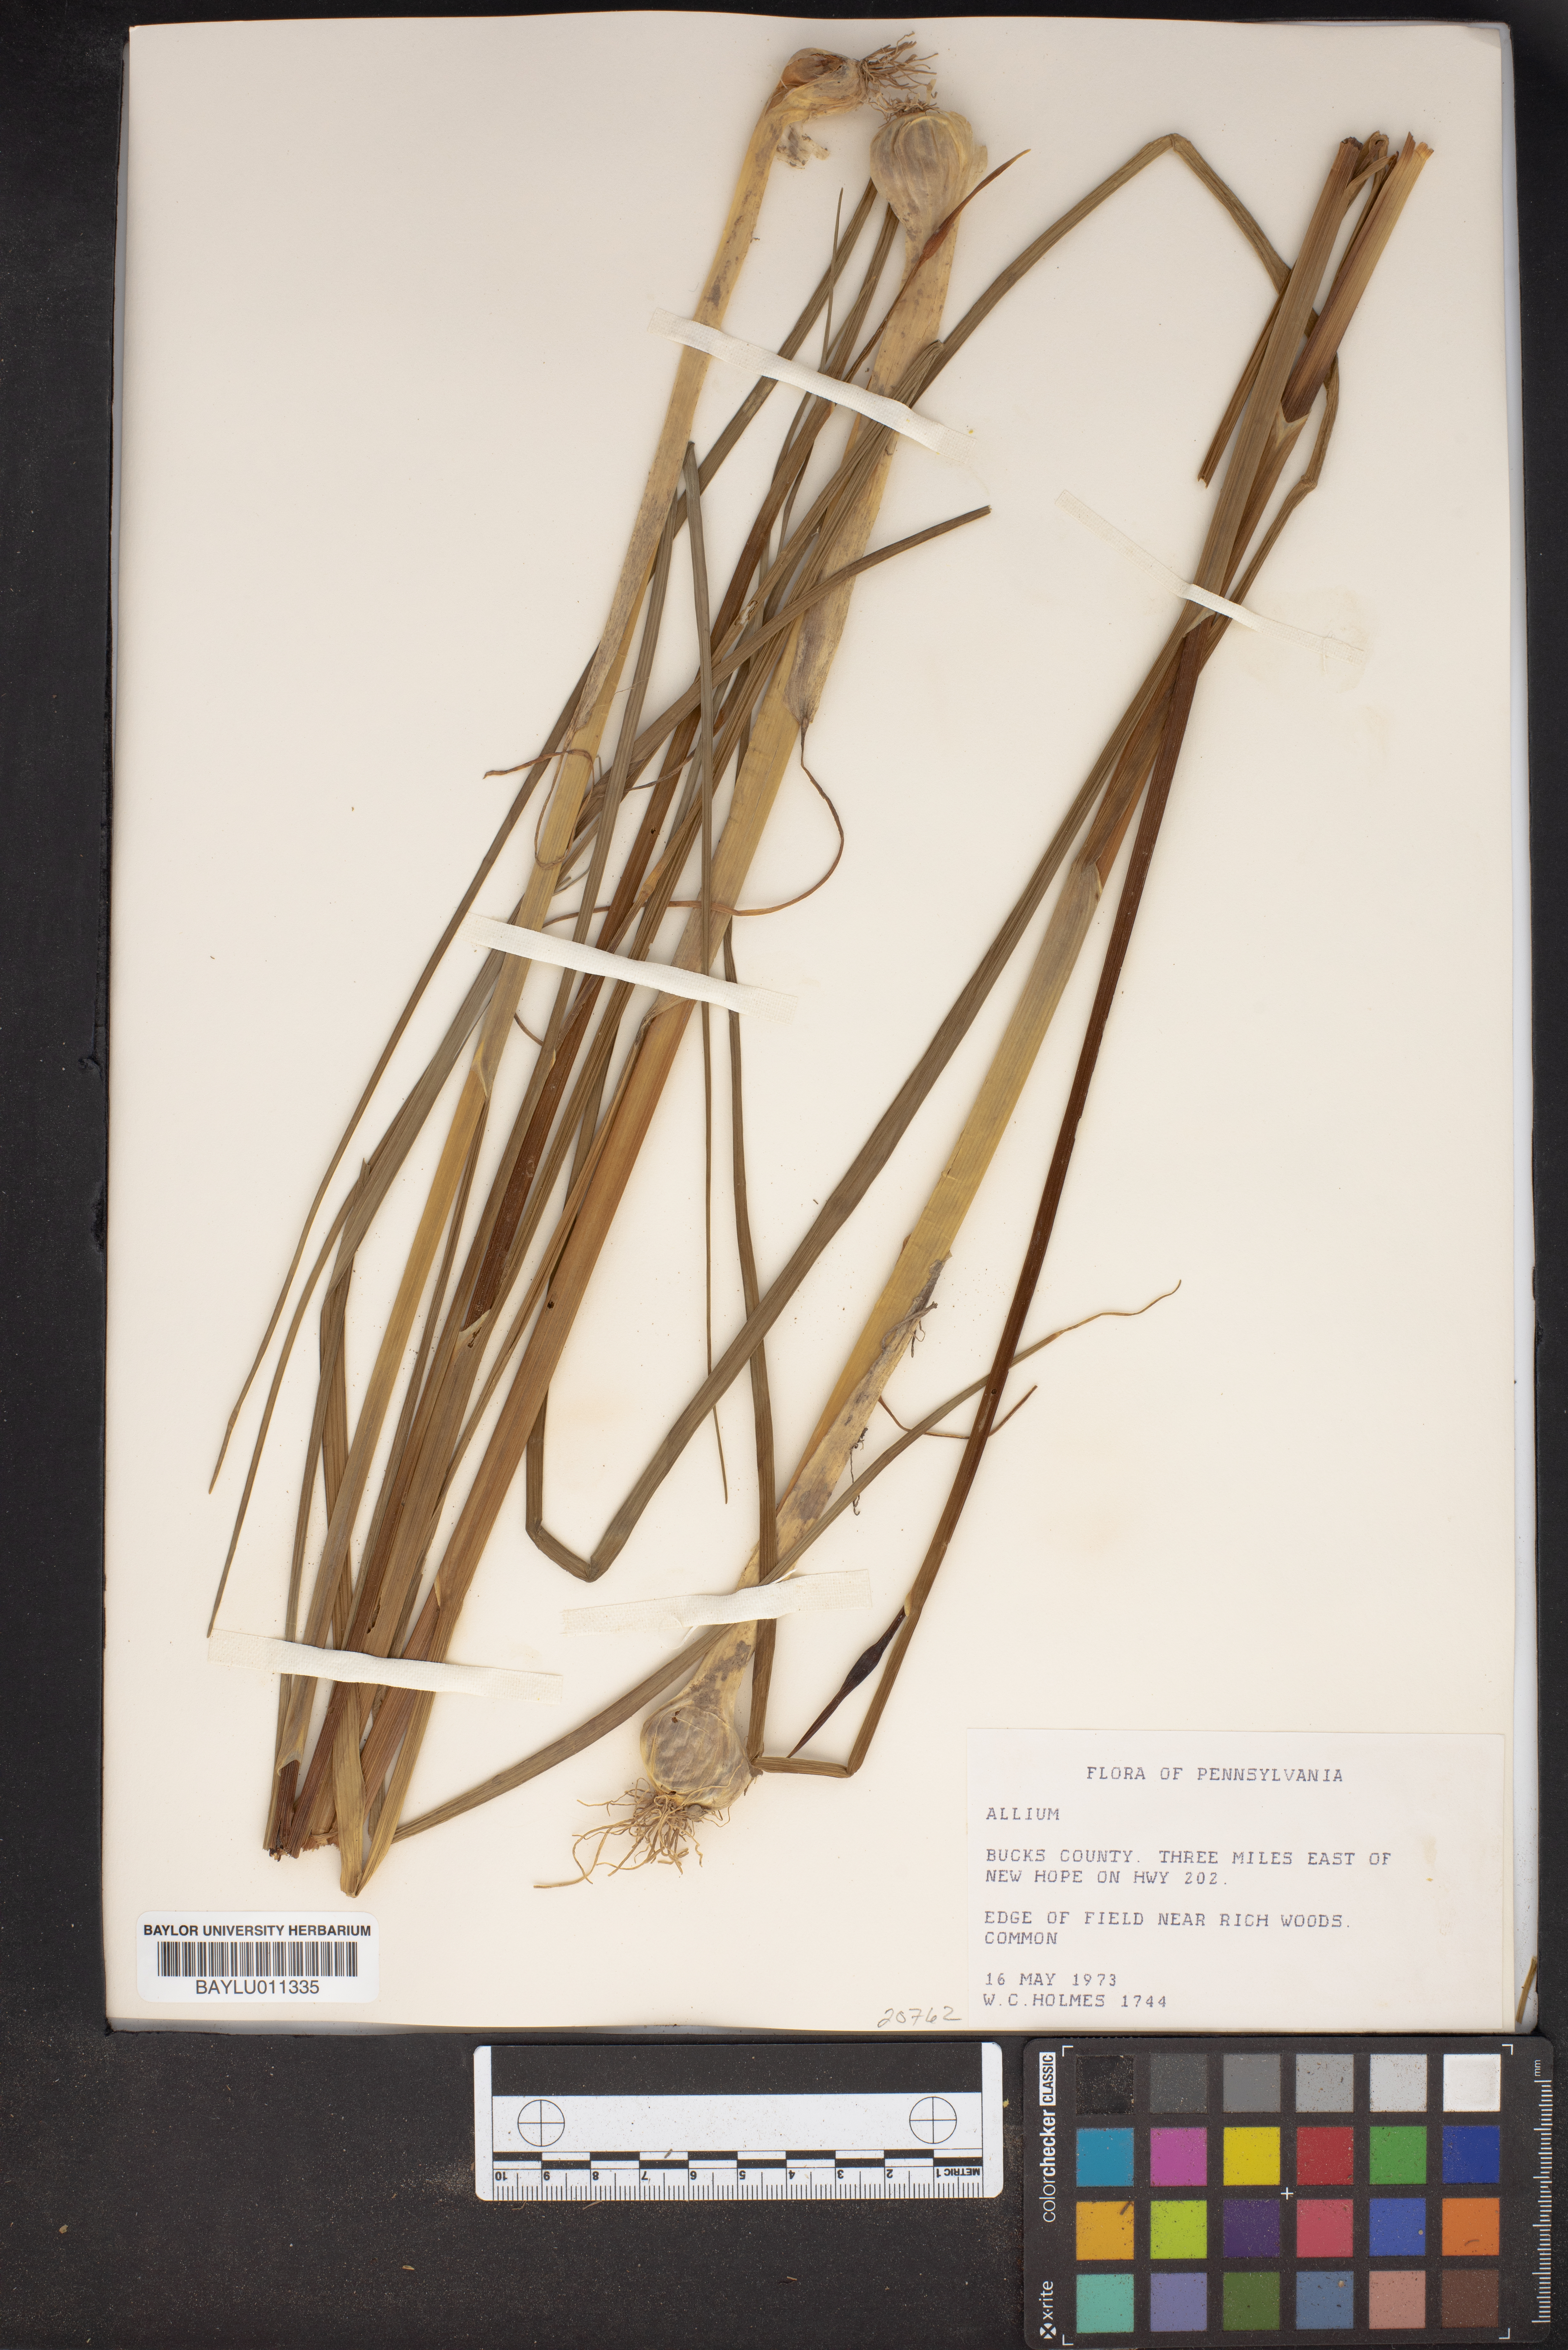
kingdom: Plantae
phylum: Tracheophyta
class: Liliopsida
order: Asparagales
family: Amaryllidaceae
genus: Allium
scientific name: Allium
